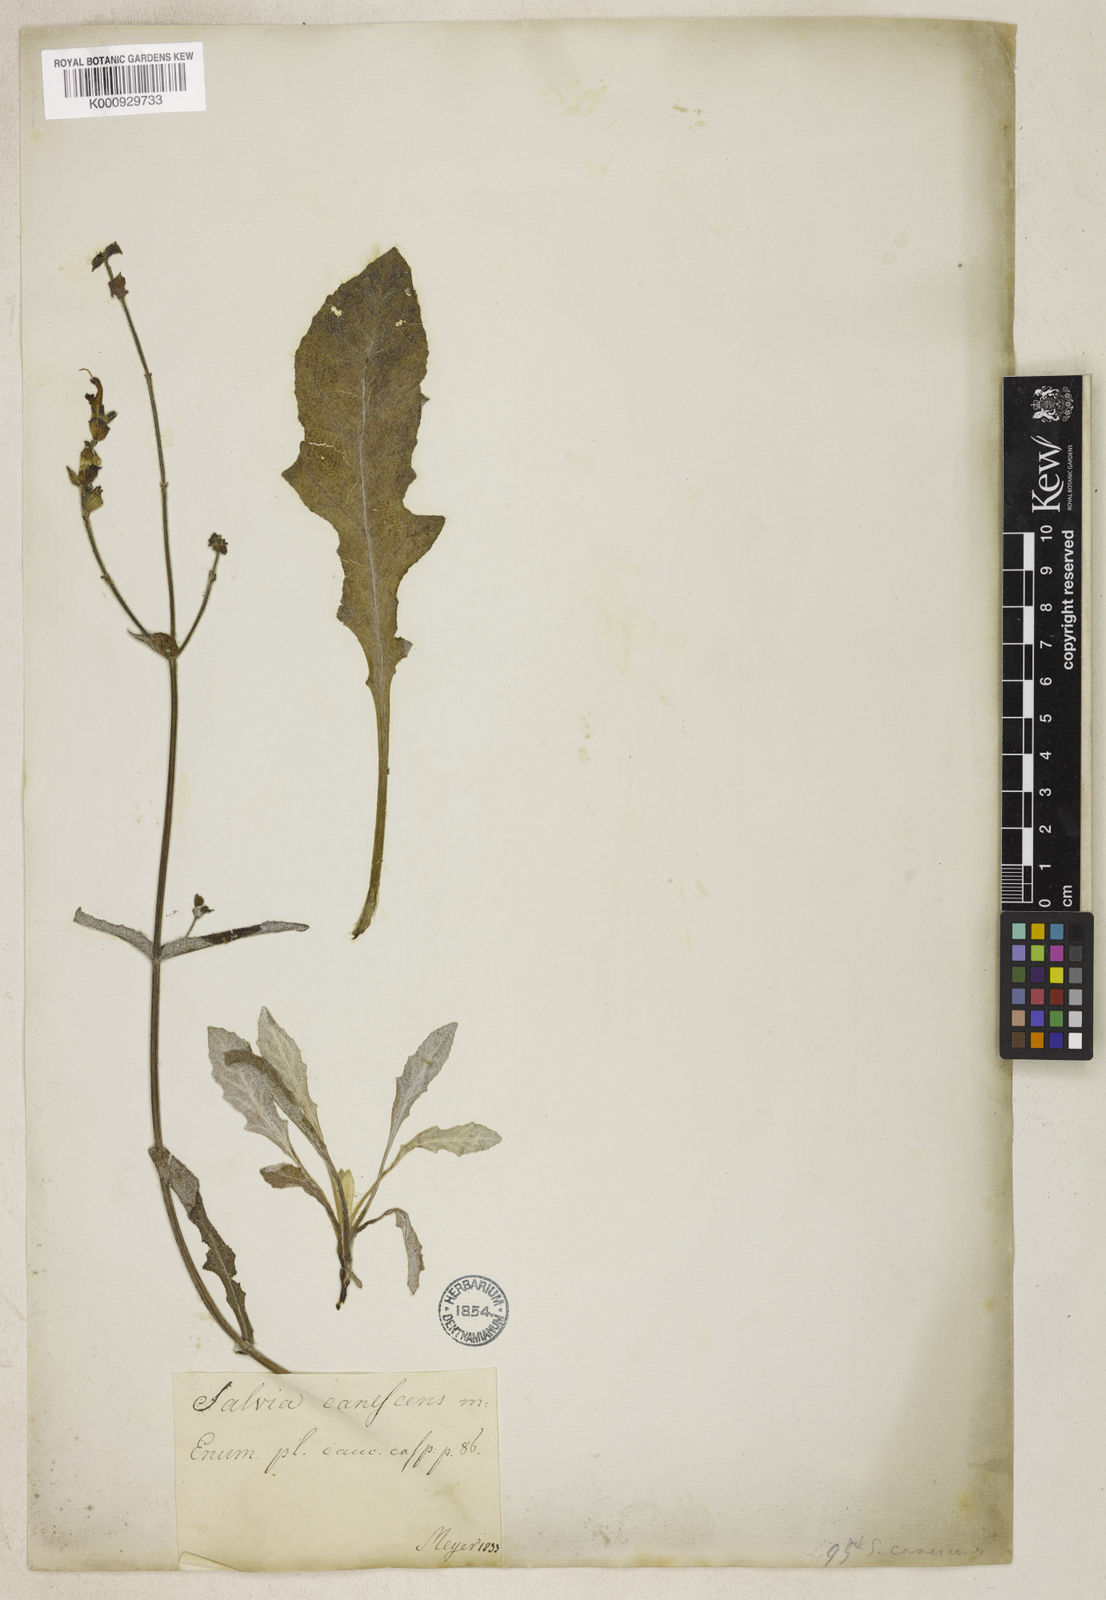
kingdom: Plantae
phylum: Tracheophyta
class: Magnoliopsida
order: Lamiales
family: Lamiaceae
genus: Salvia
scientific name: Salvia pallida
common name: Pale sage
